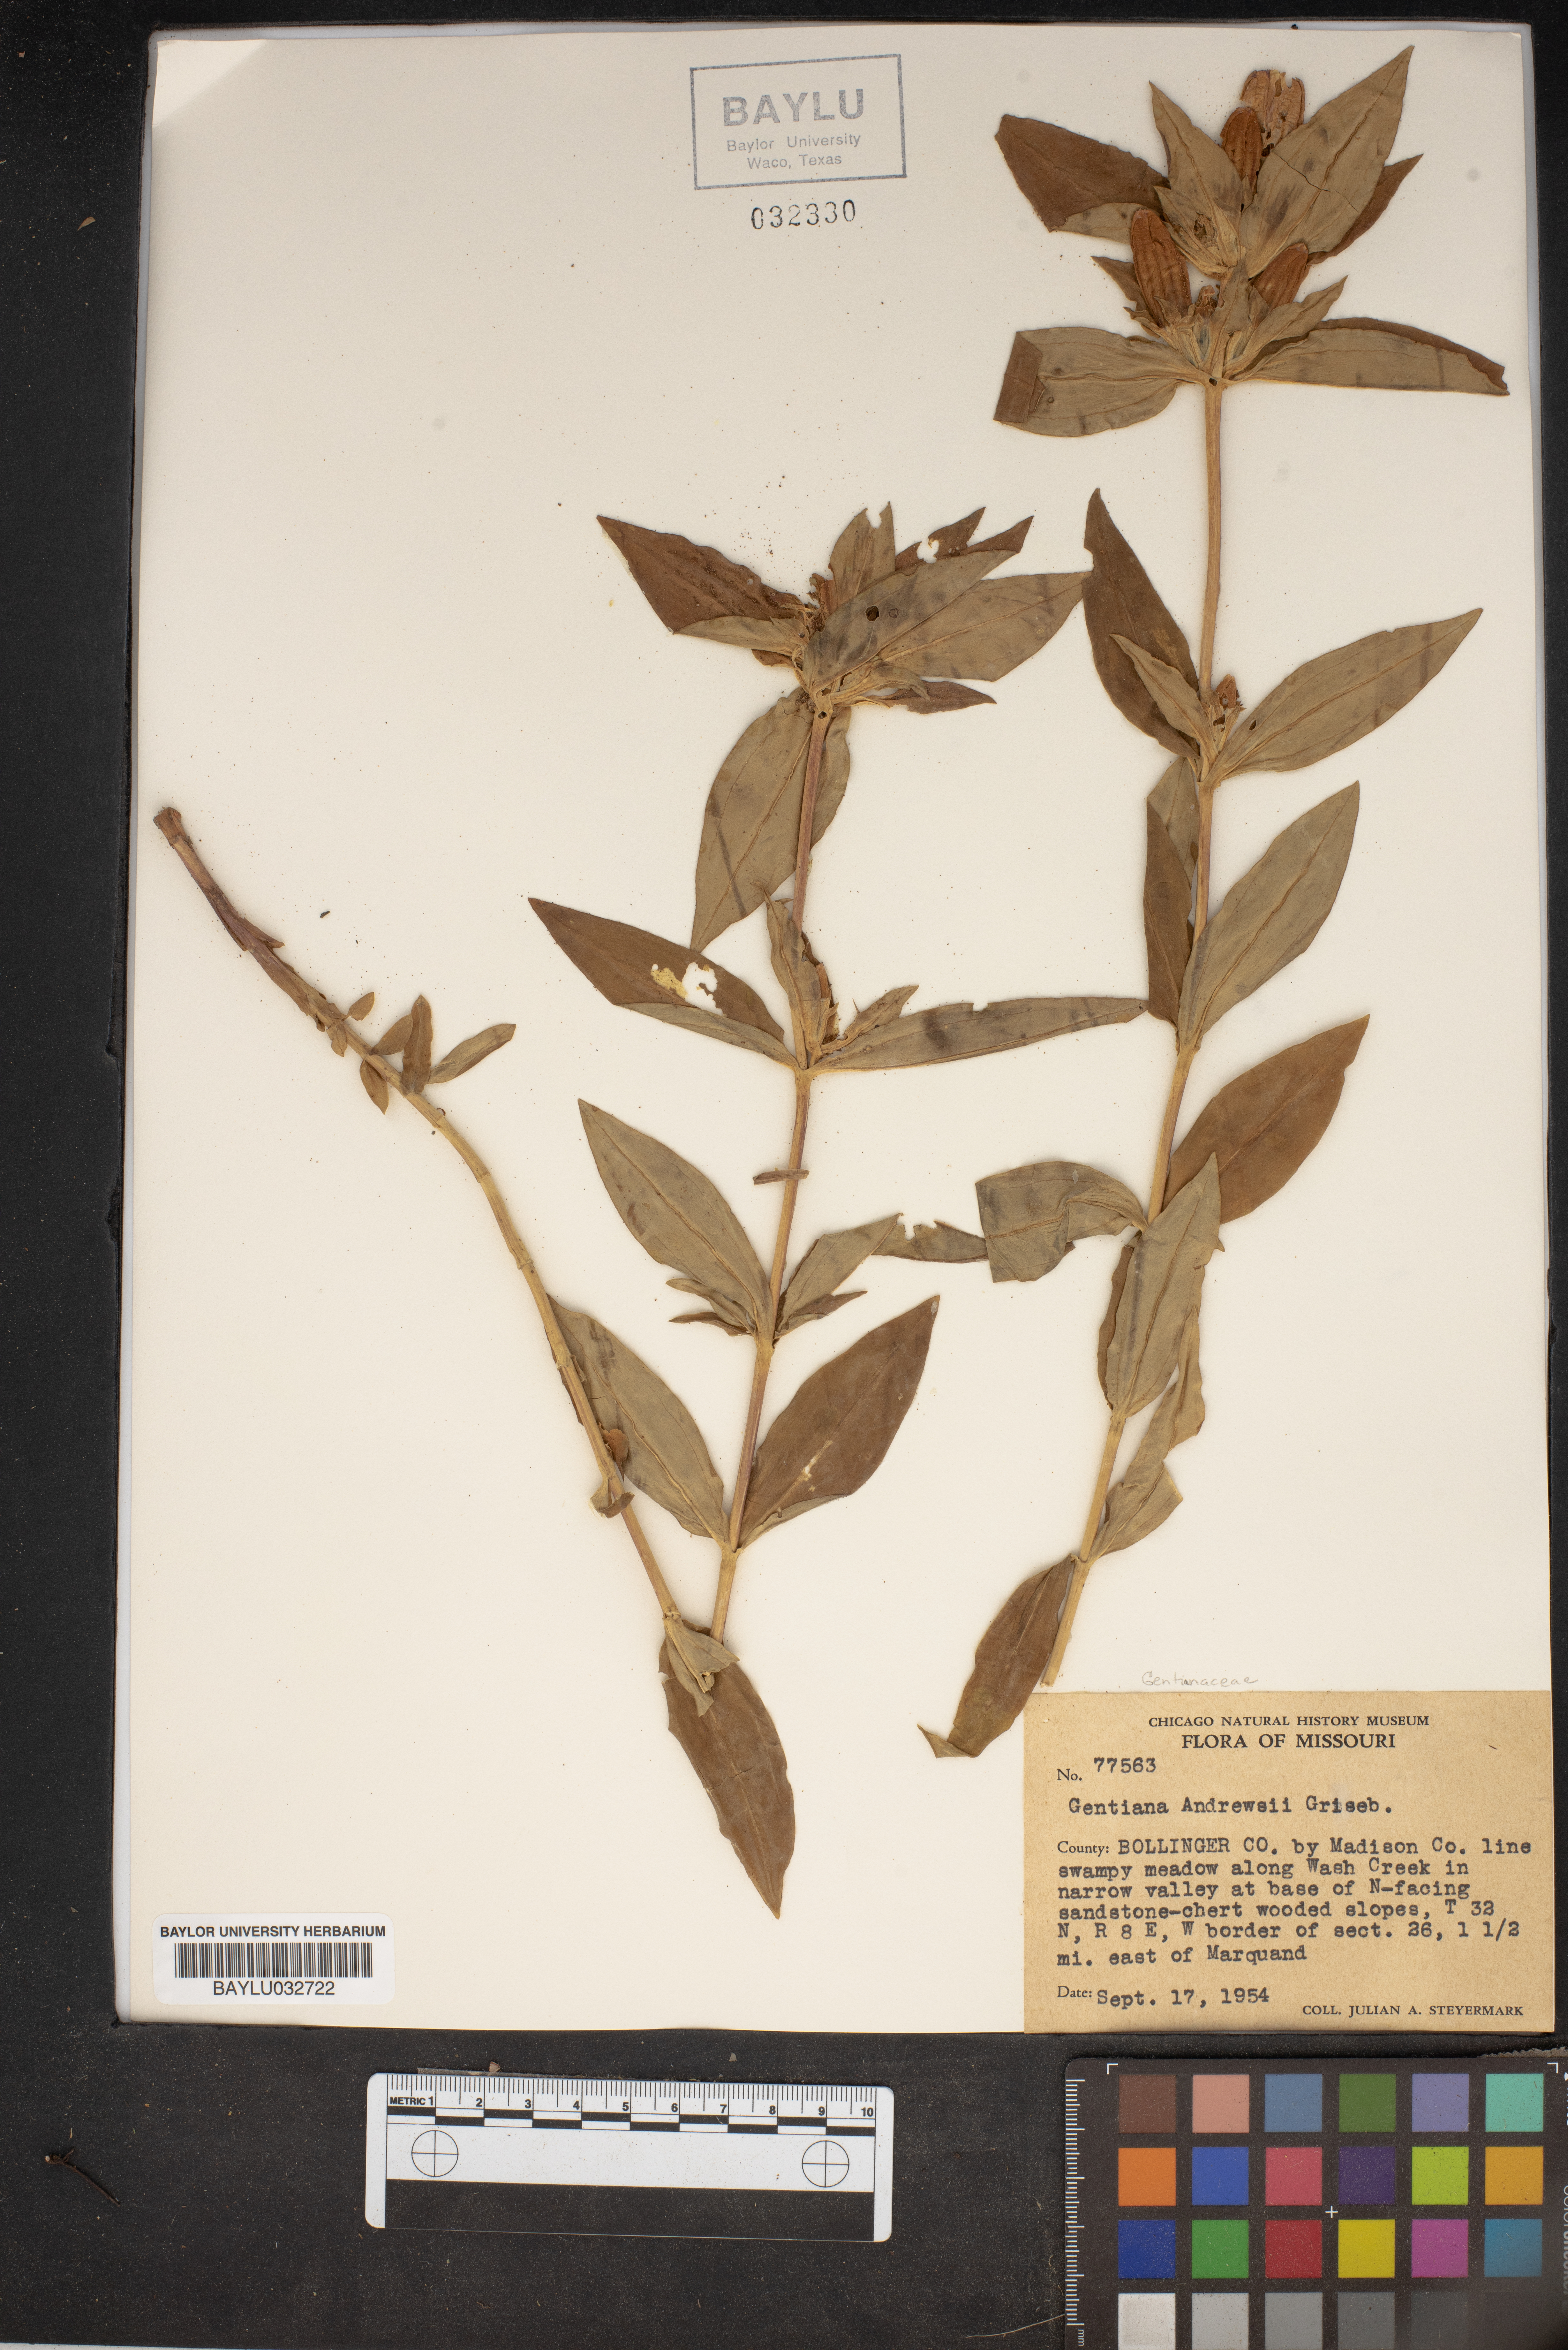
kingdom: Plantae
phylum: Tracheophyta
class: Magnoliopsida
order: Gentianales
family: Gentianaceae
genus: Gentiana
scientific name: Gentiana andrewsii
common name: Bottle gentian
